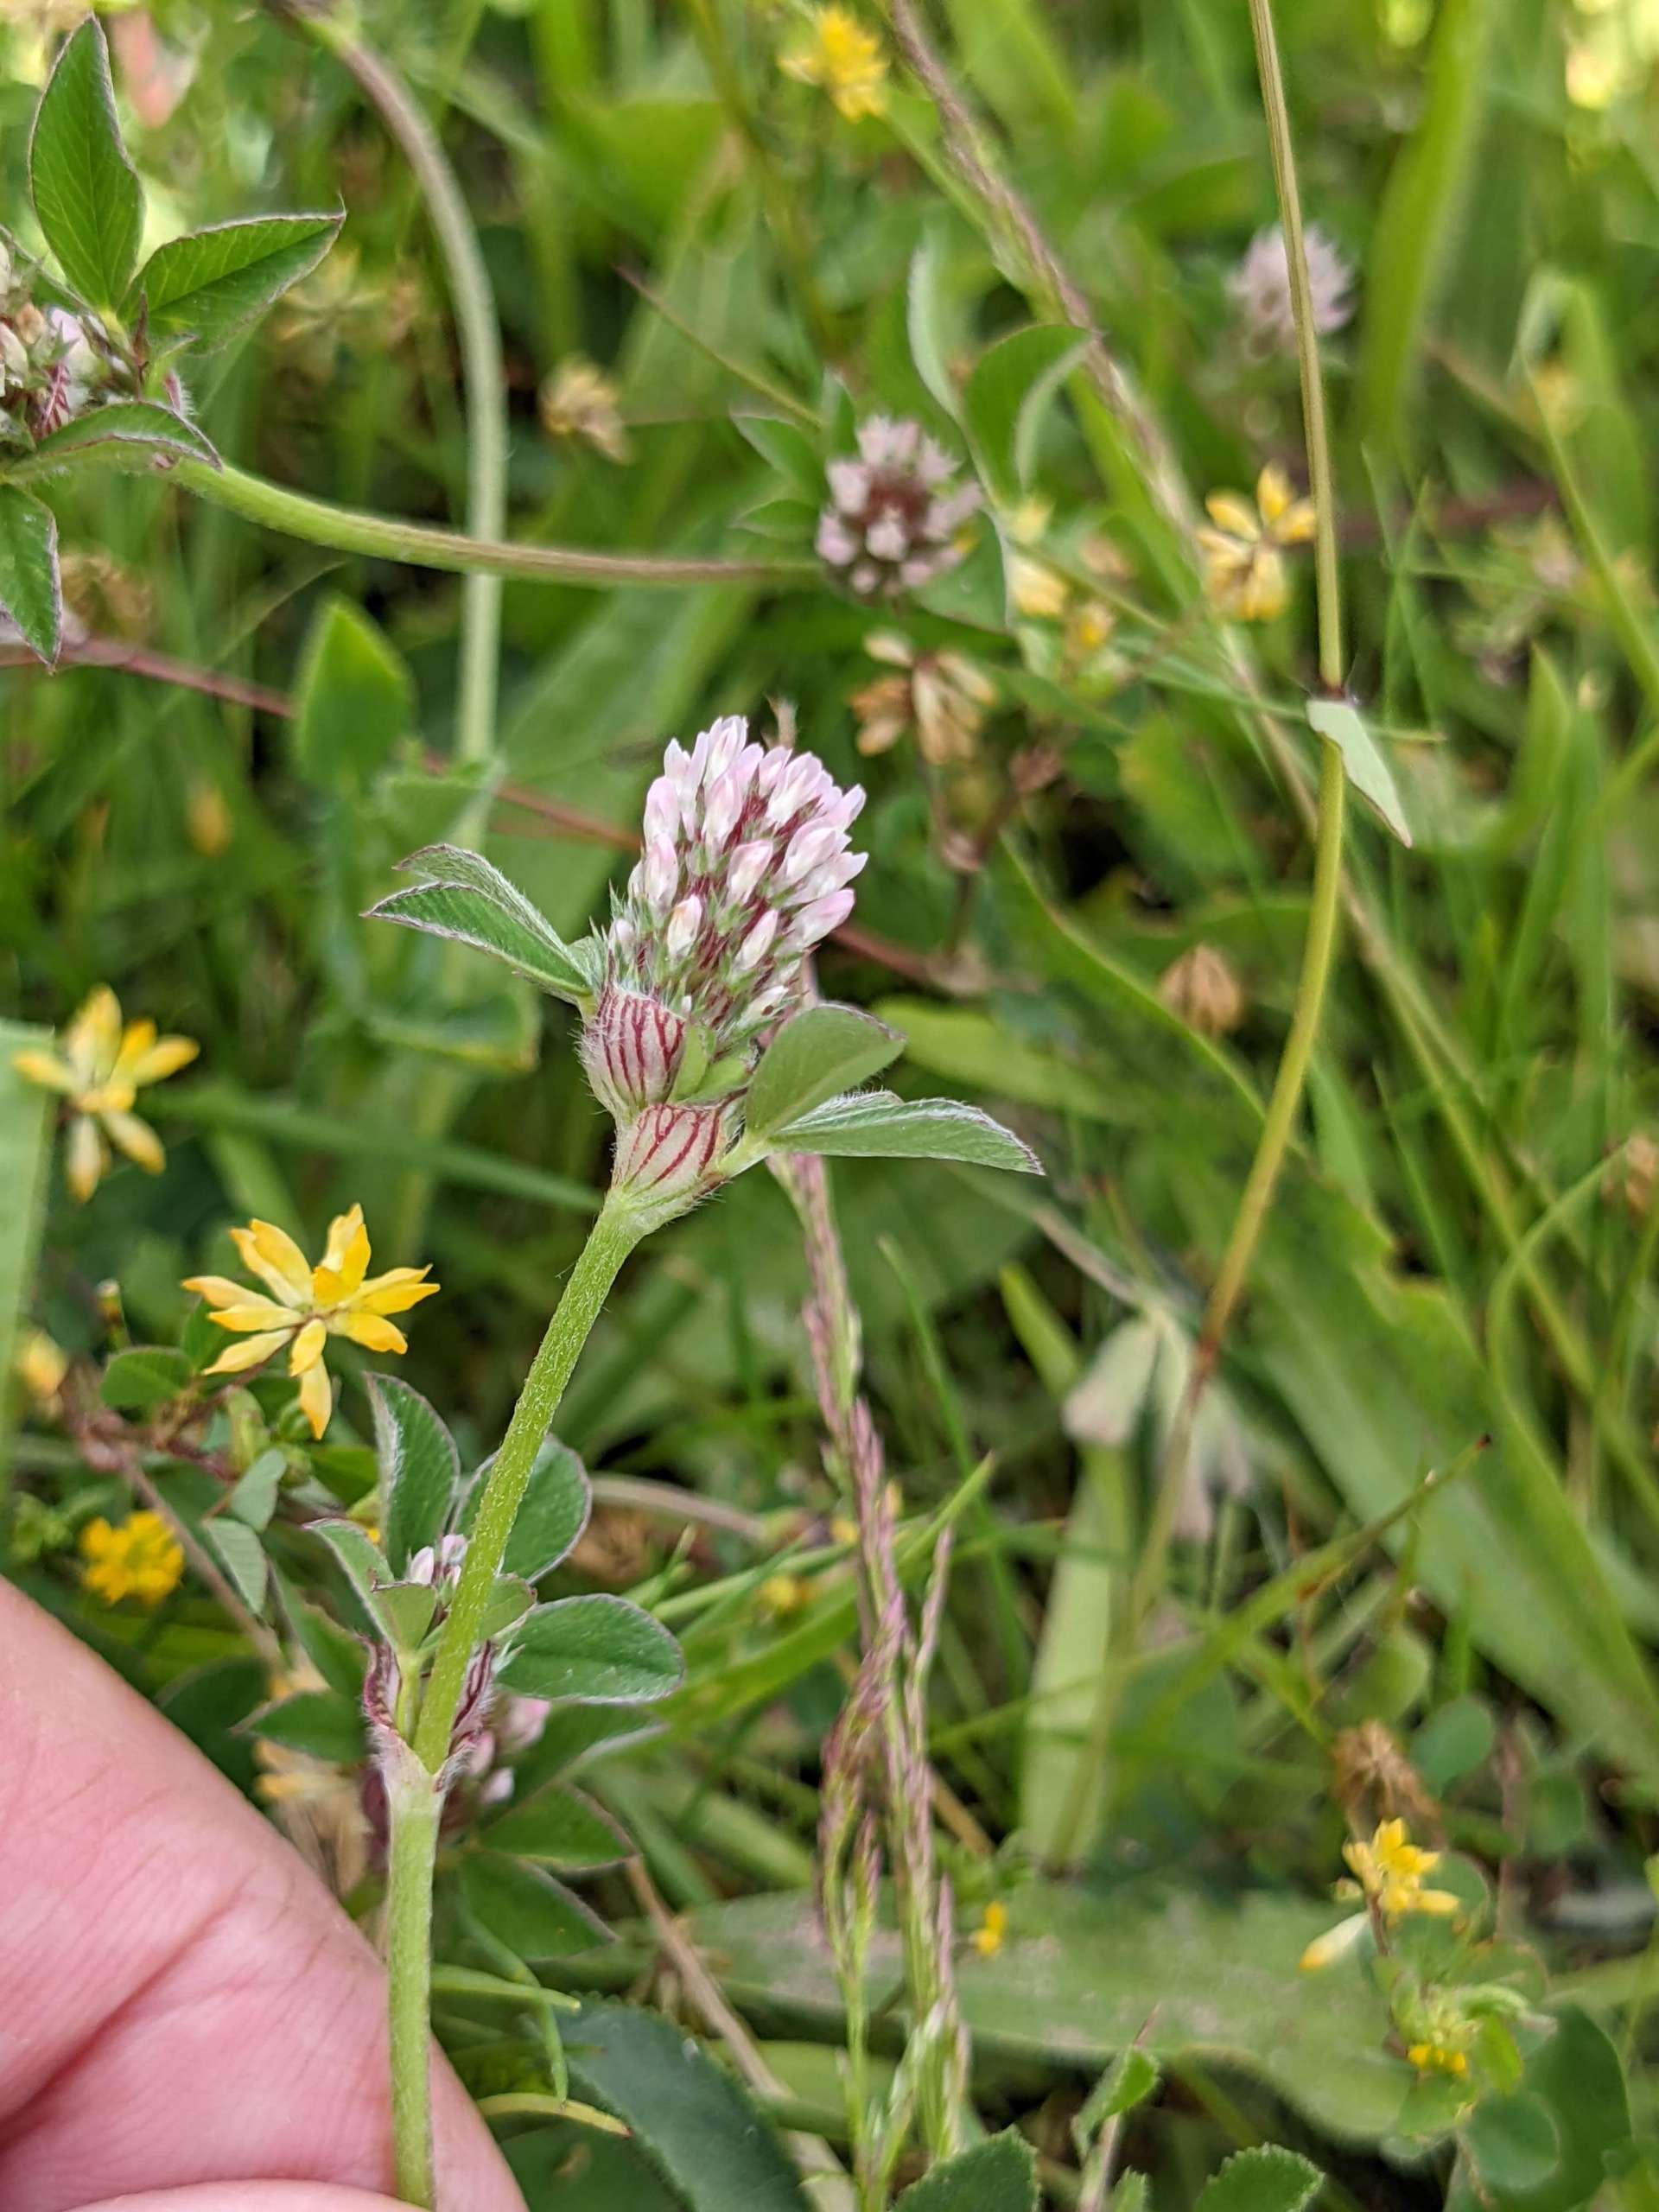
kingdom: Plantae
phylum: Tracheophyta
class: Magnoliopsida
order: Fabales
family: Fabaceae
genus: Trifolium
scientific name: Trifolium striatum
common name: Stribet kløver
